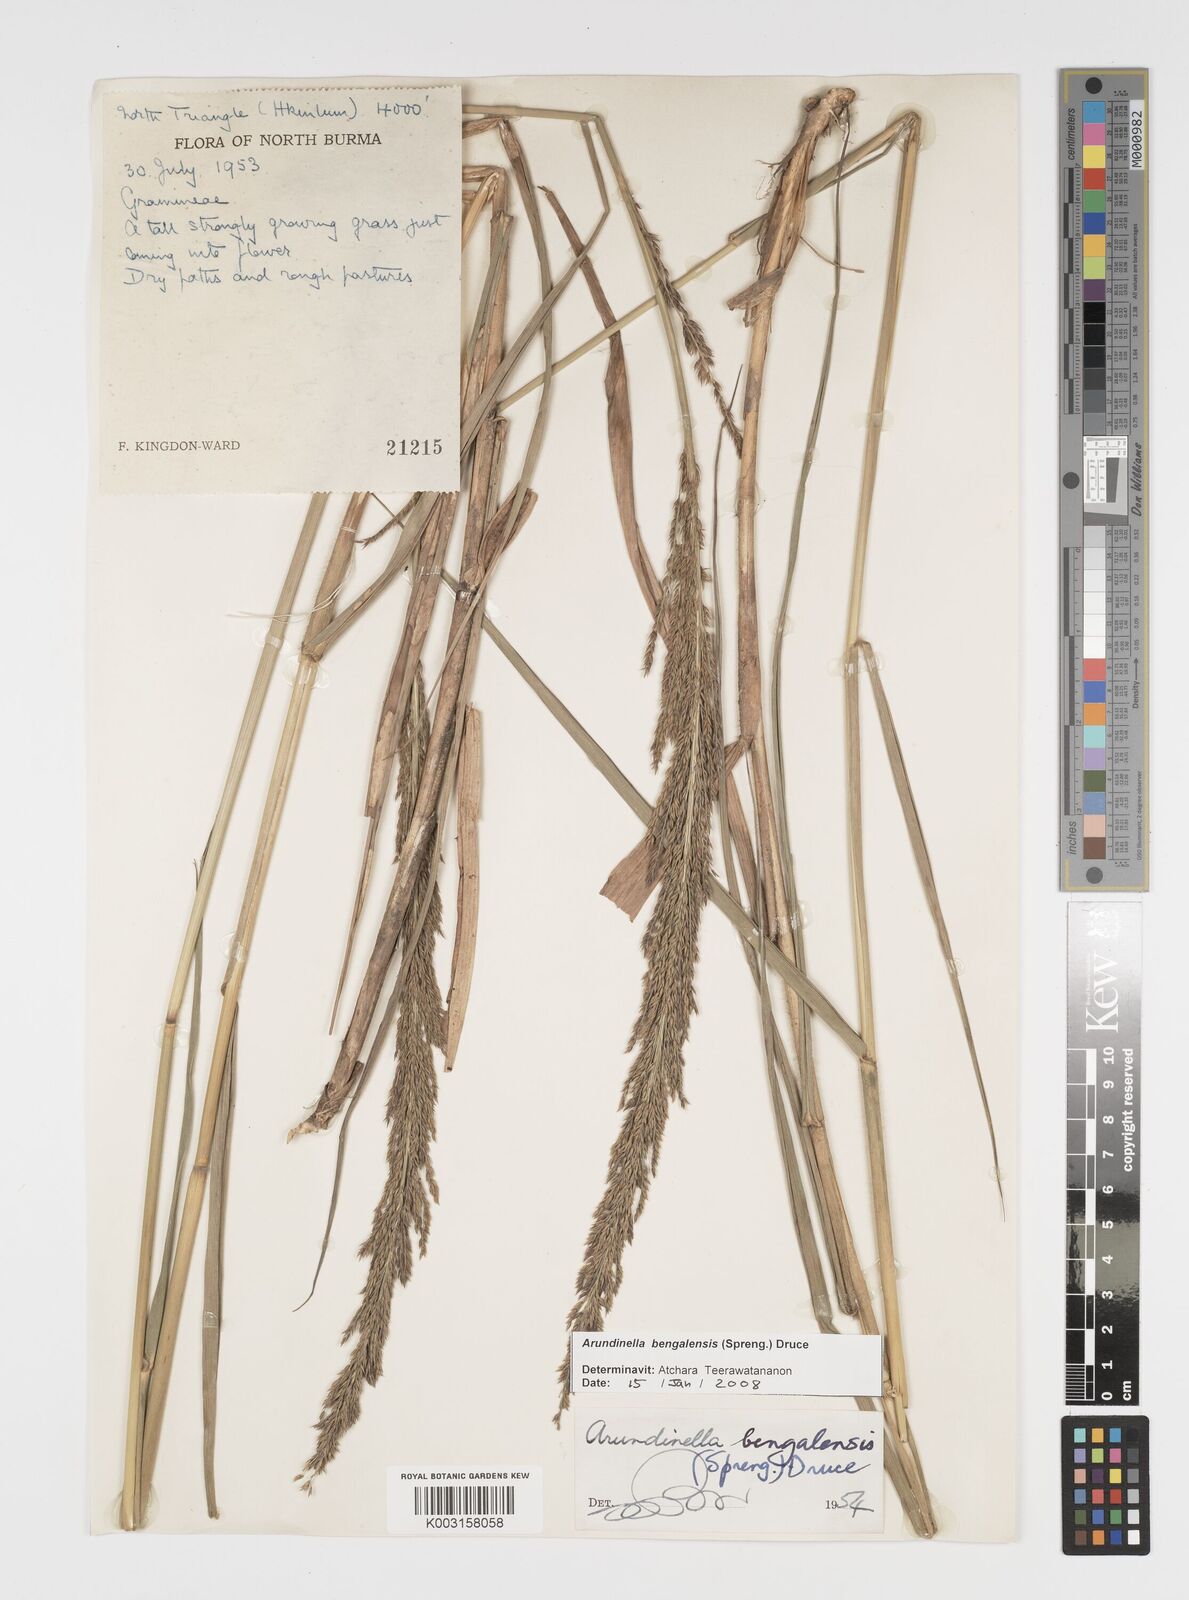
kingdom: Plantae
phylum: Tracheophyta
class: Liliopsida
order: Poales
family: Poaceae
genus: Arundinella
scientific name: Arundinella bengalensis
